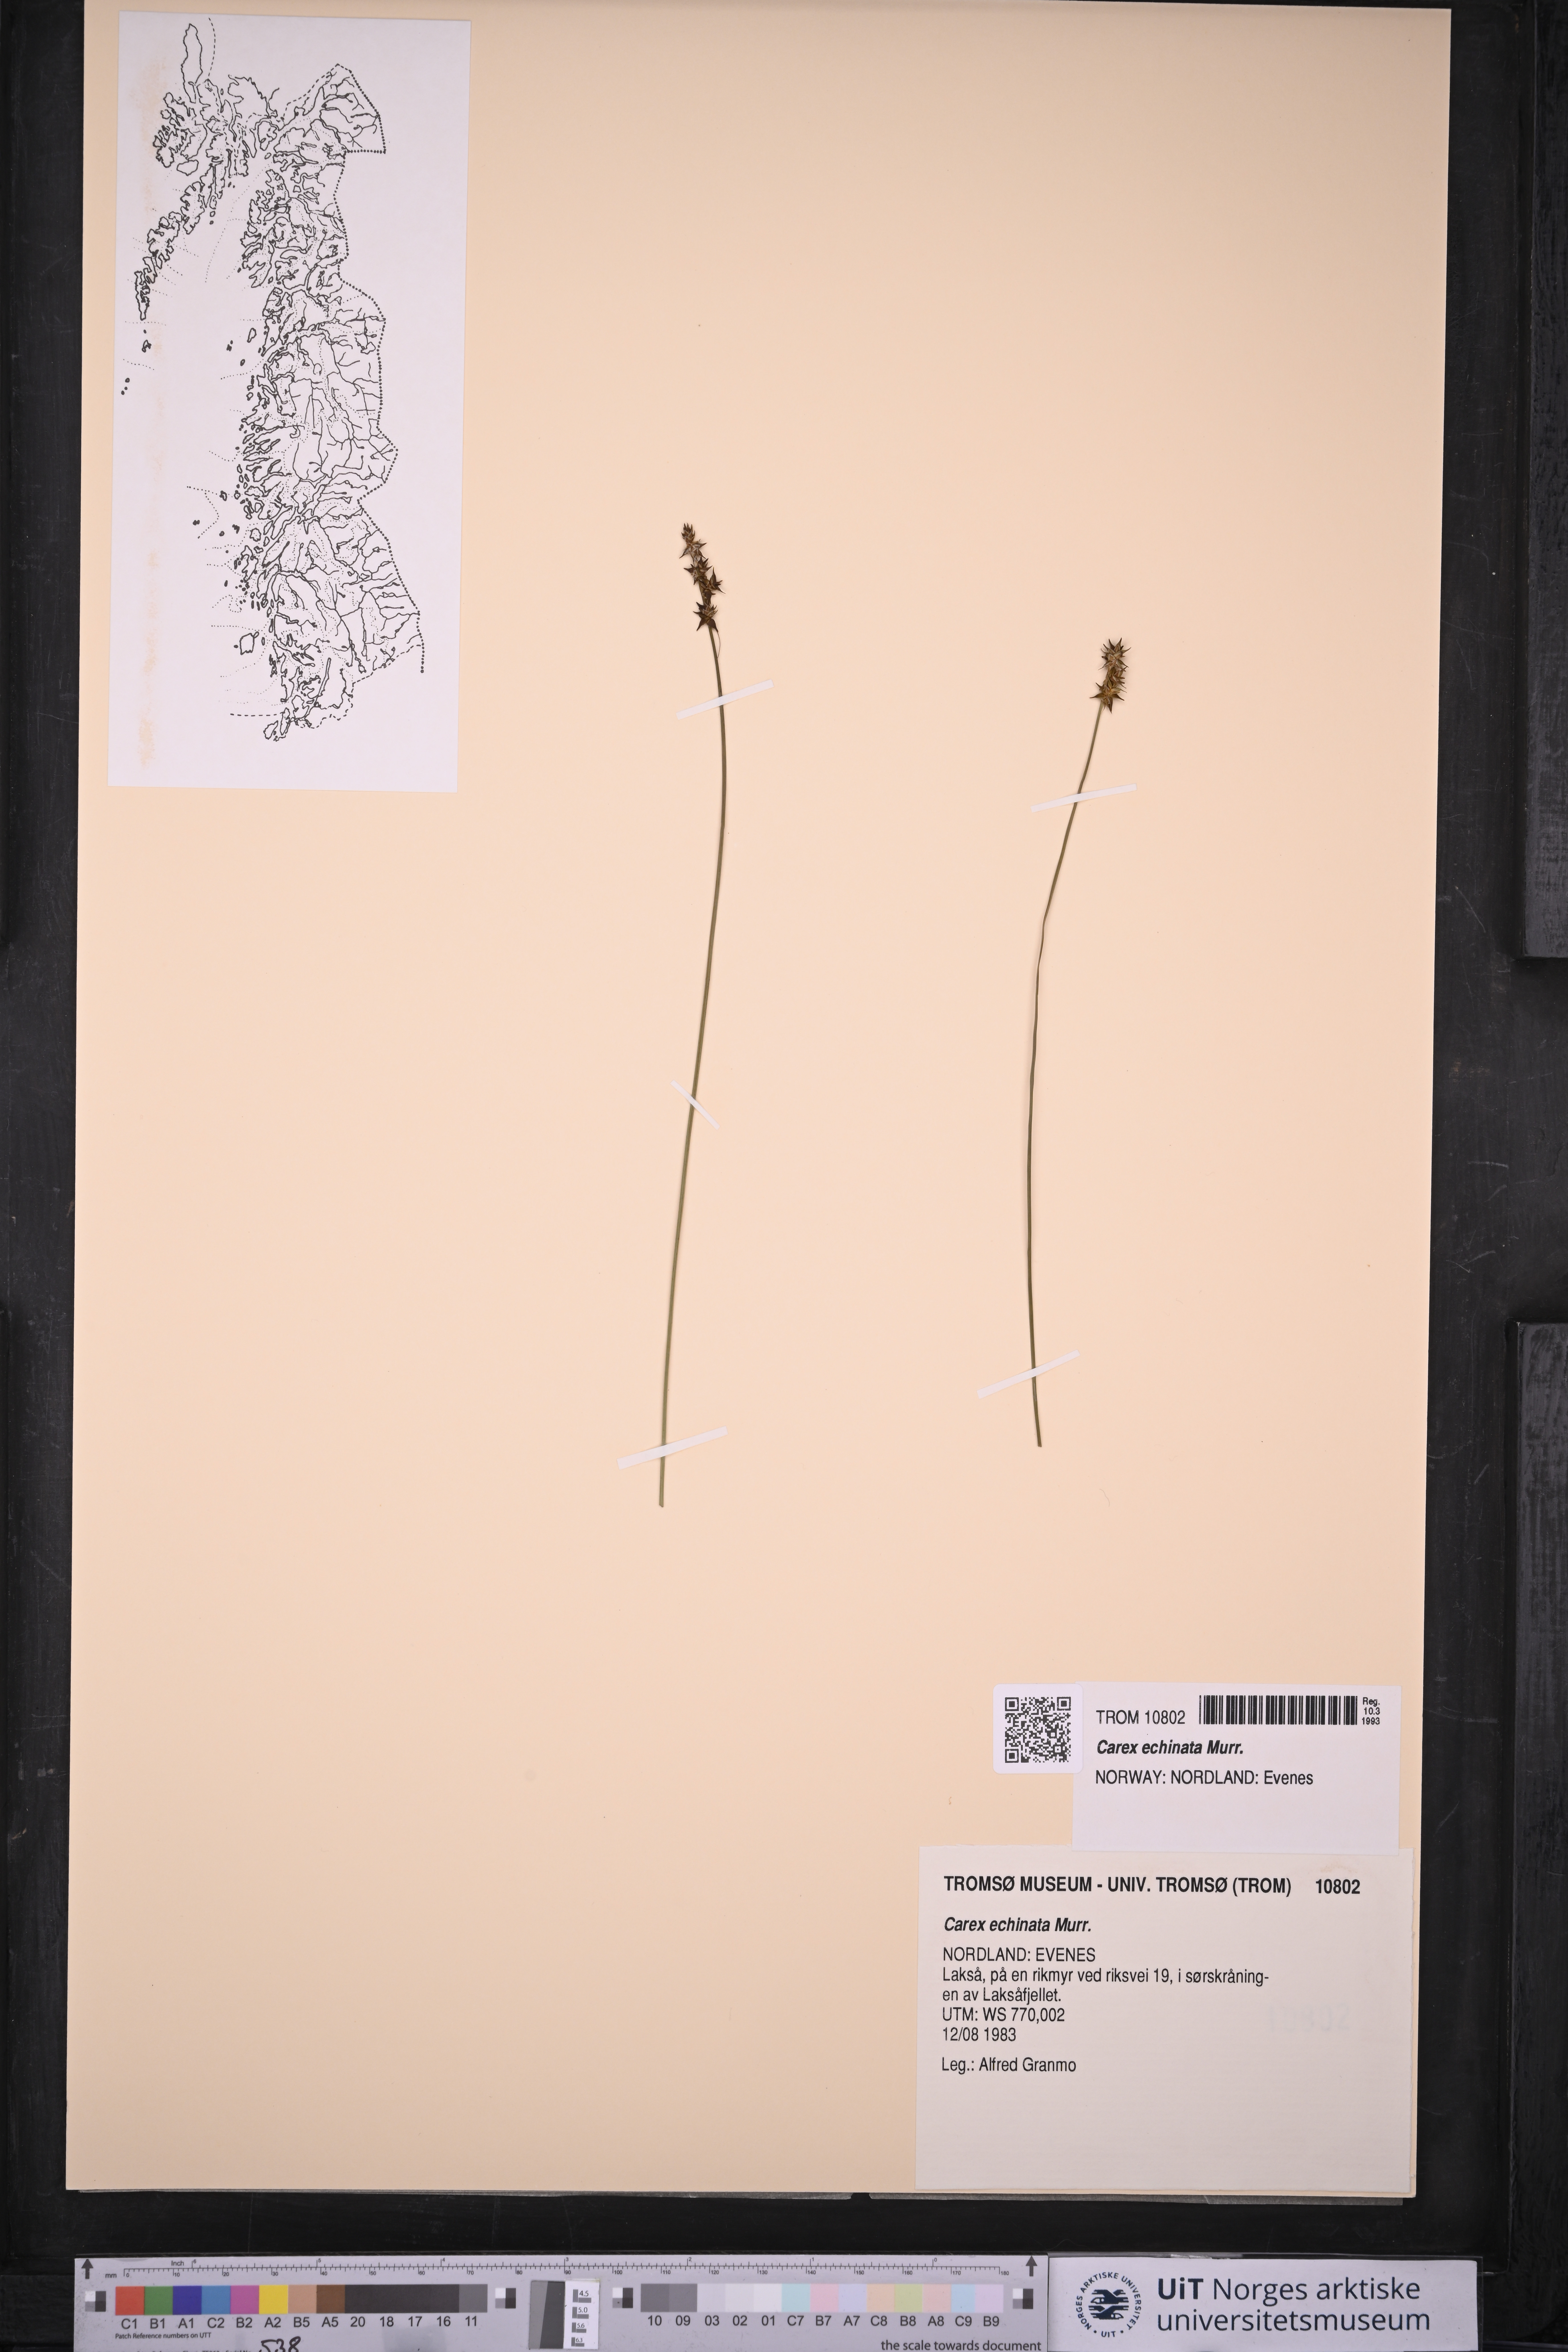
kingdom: Plantae
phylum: Tracheophyta
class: Liliopsida
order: Poales
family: Cyperaceae
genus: Carex
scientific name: Carex echinata
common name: Star sedge
